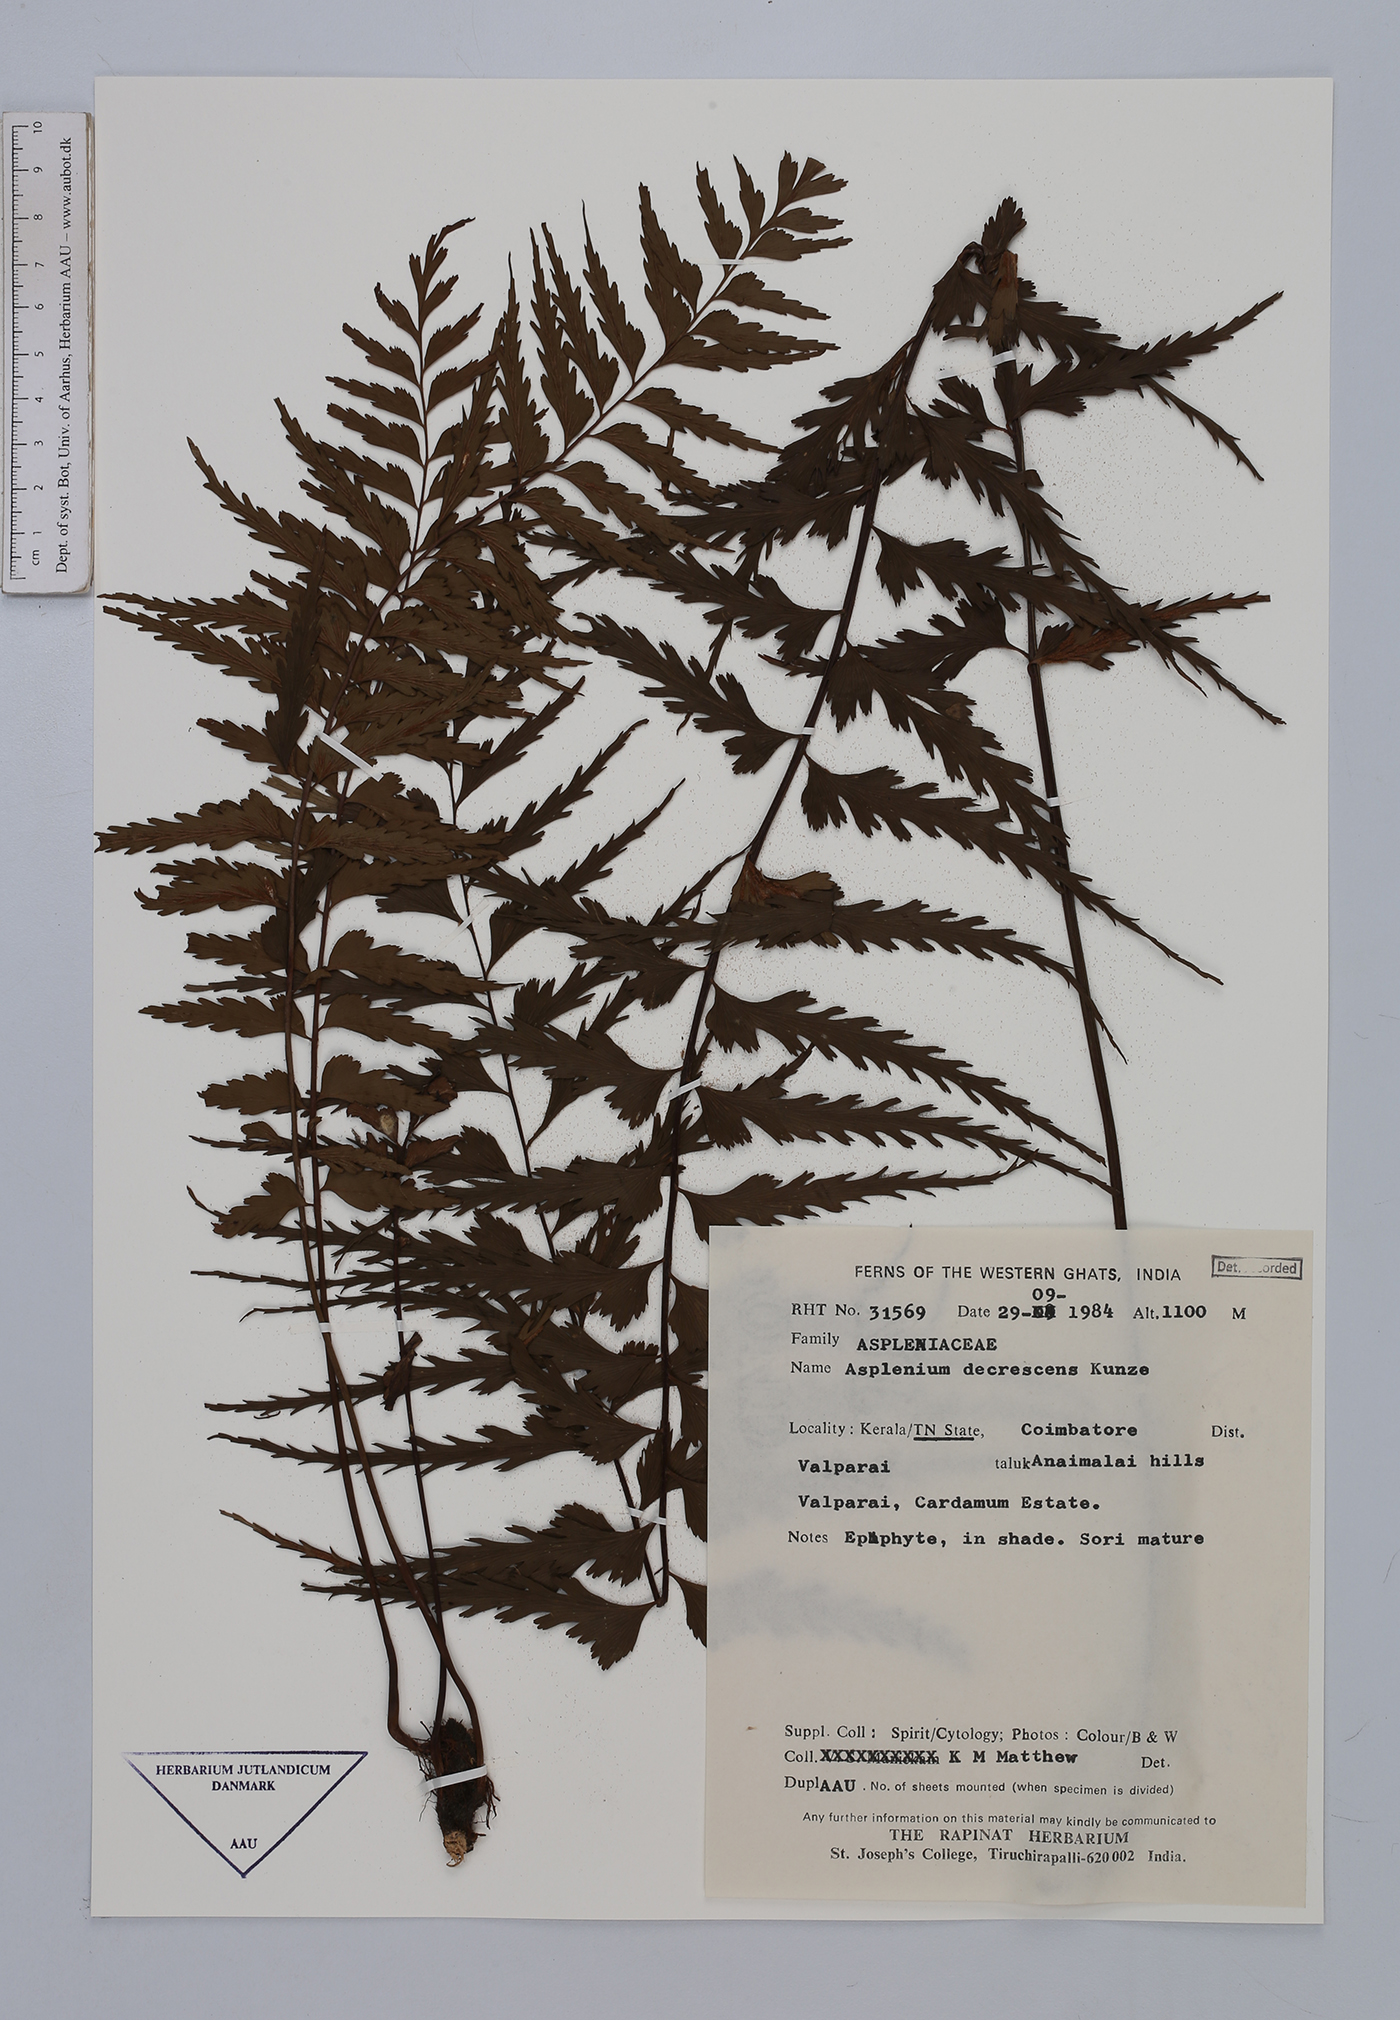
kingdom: Plantae
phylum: Tracheophyta
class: Polypodiopsida
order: Polypodiales
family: Aspleniaceae
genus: Asplenium
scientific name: Asplenium decrescens
